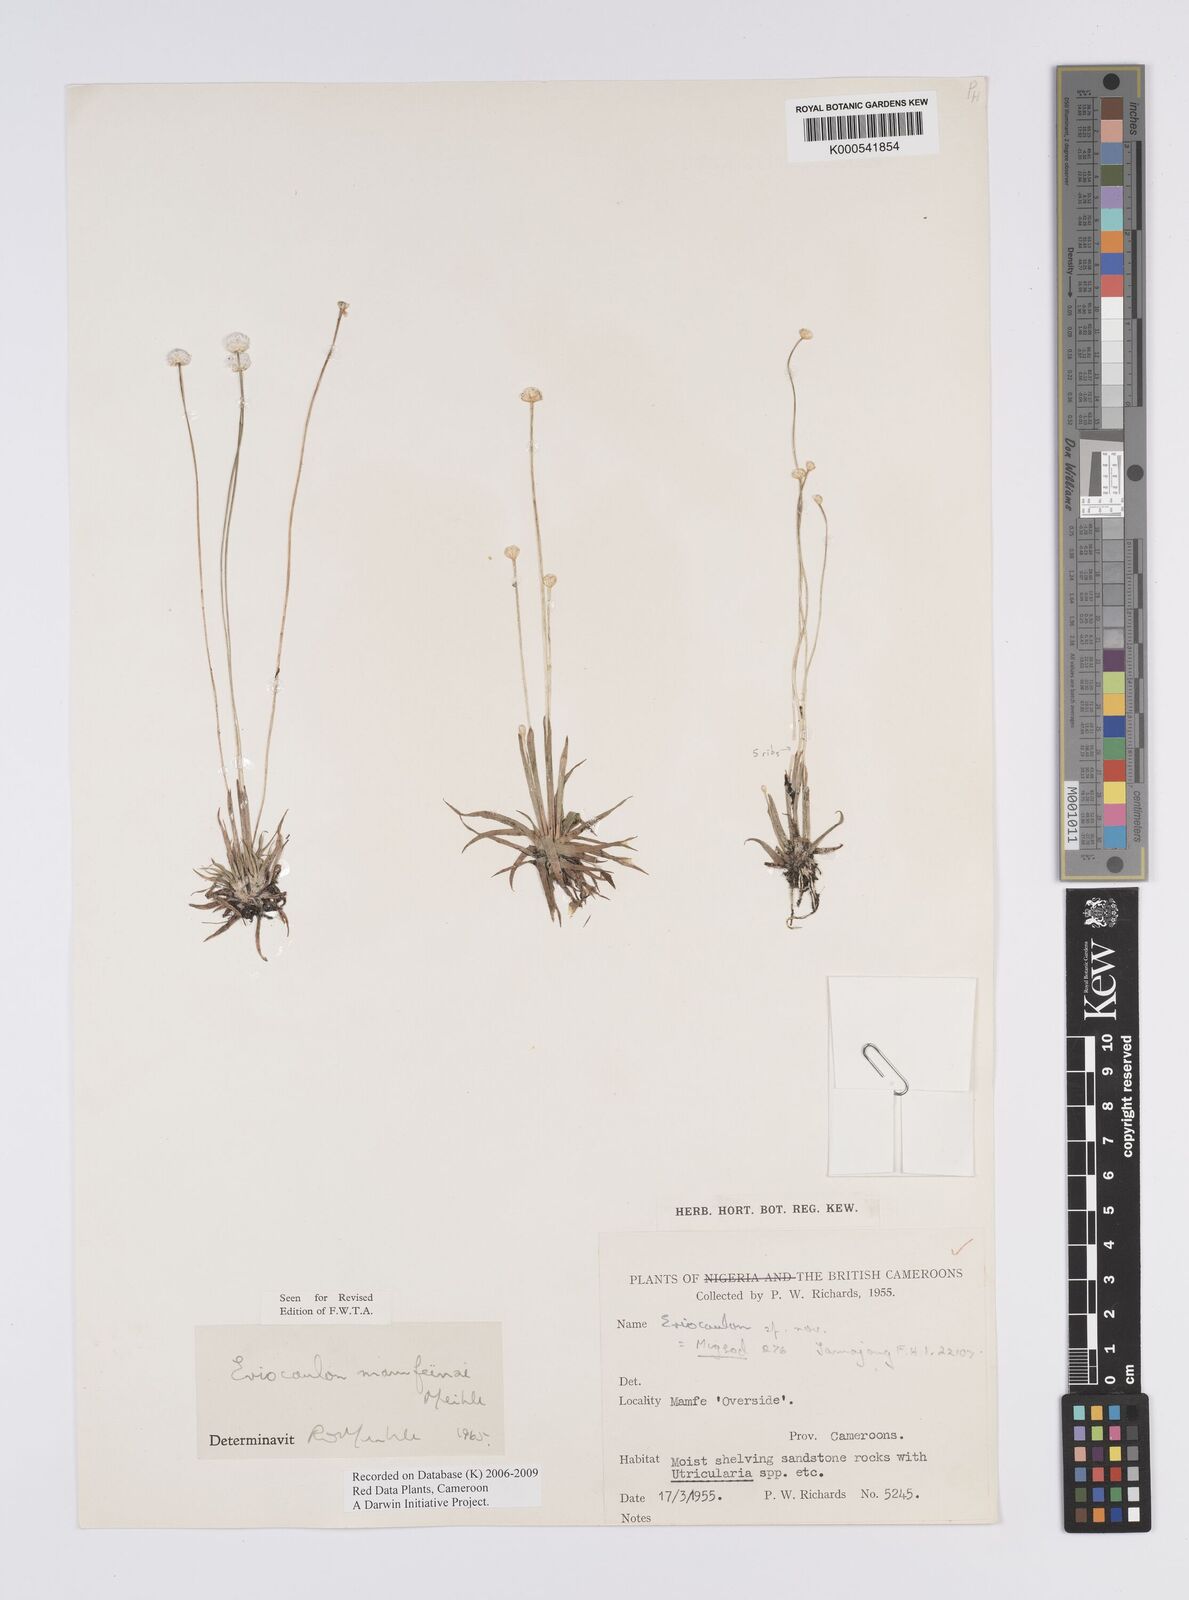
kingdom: Plantae
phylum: Tracheophyta
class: Liliopsida
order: Poales
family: Eriocaulaceae
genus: Eriocaulon
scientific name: Eriocaulon
